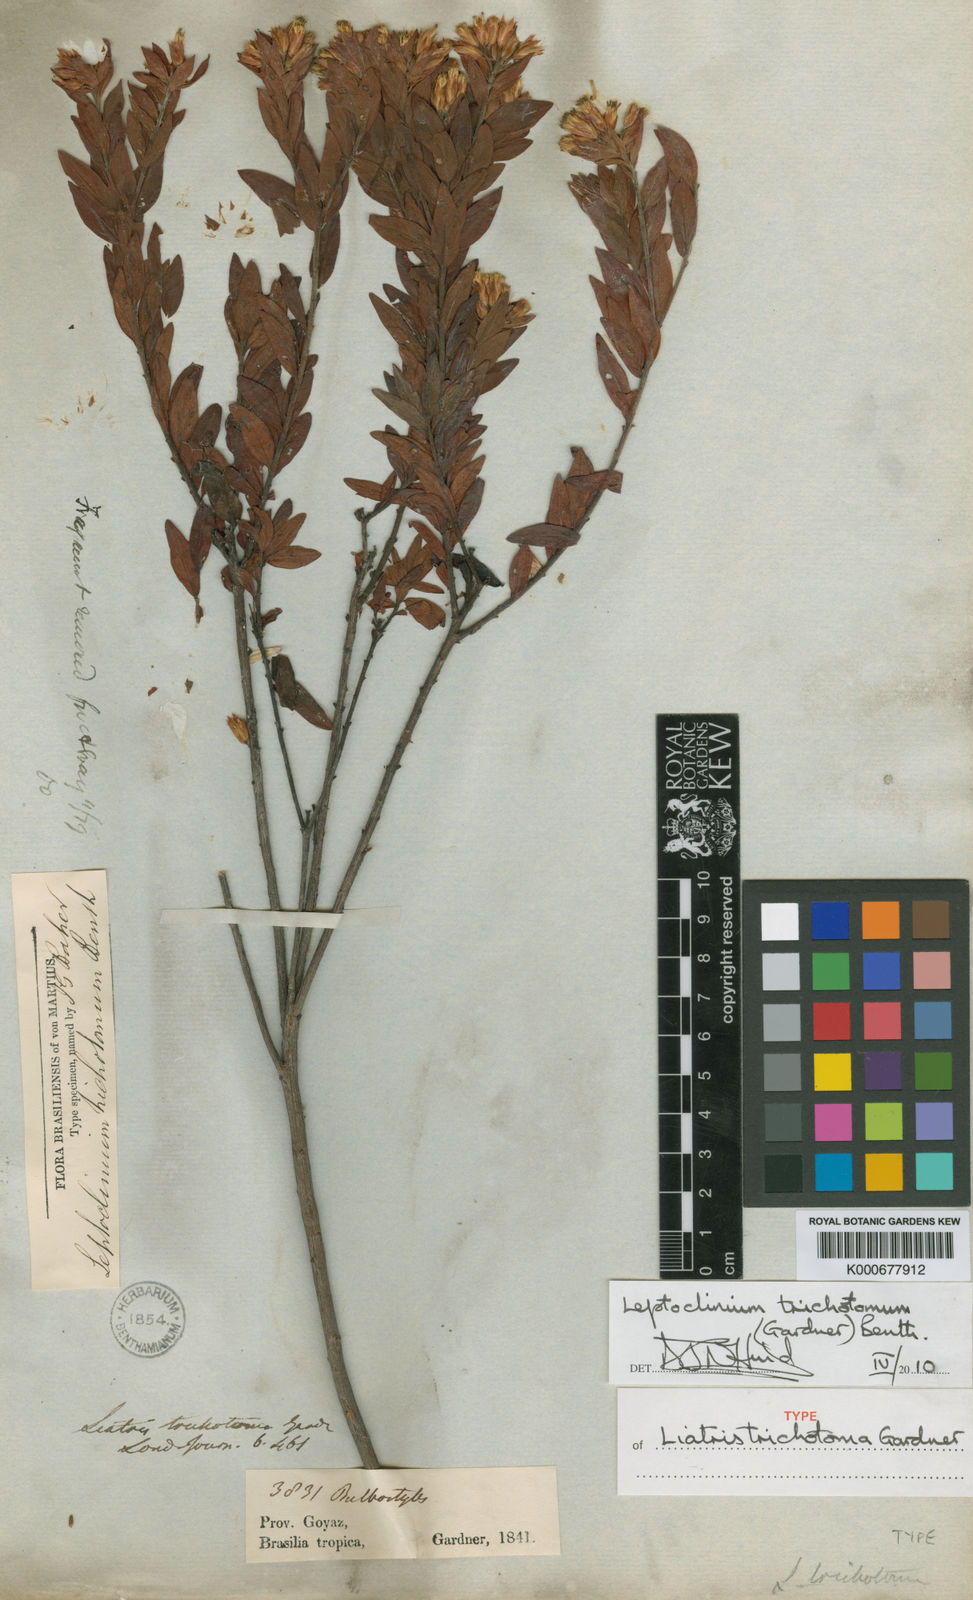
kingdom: Plantae
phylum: Tracheophyta
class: Magnoliopsida
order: Asterales
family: Asteraceae
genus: Leptoclinium
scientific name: Leptoclinium
